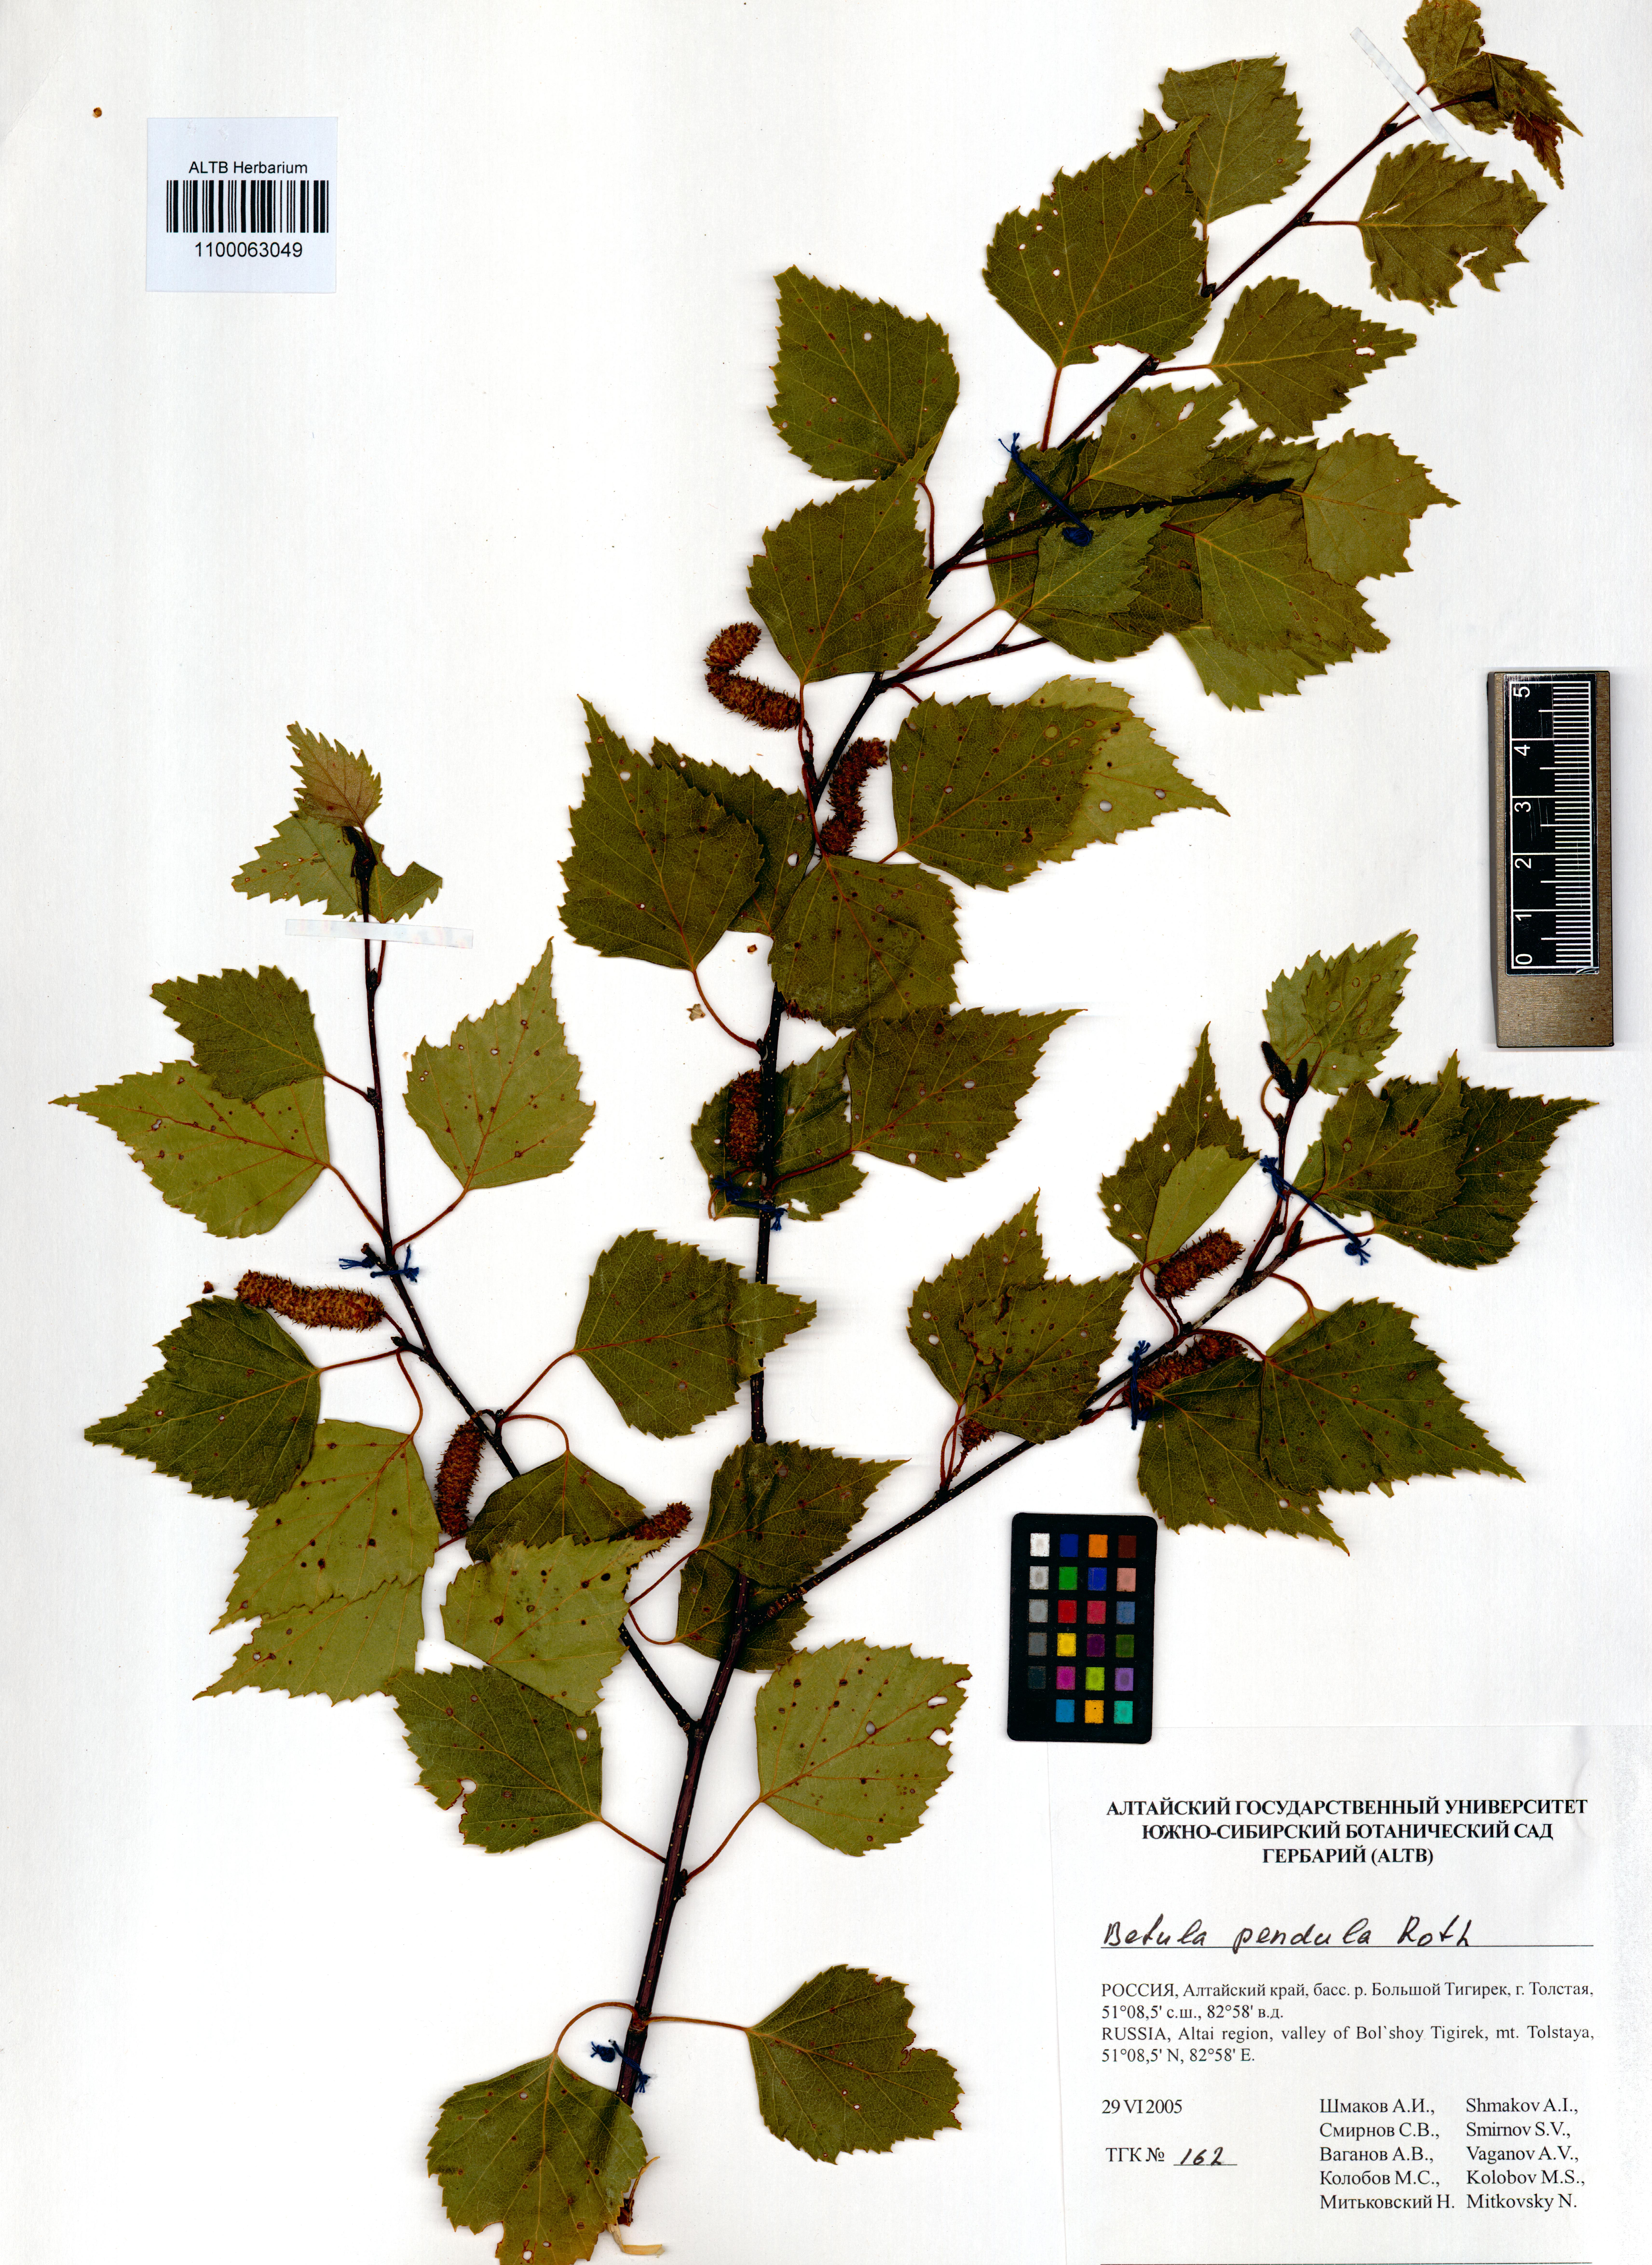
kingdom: Plantae
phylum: Tracheophyta
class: Magnoliopsida
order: Fagales
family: Betulaceae
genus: Betula
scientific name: Betula pendula
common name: Silver birch
